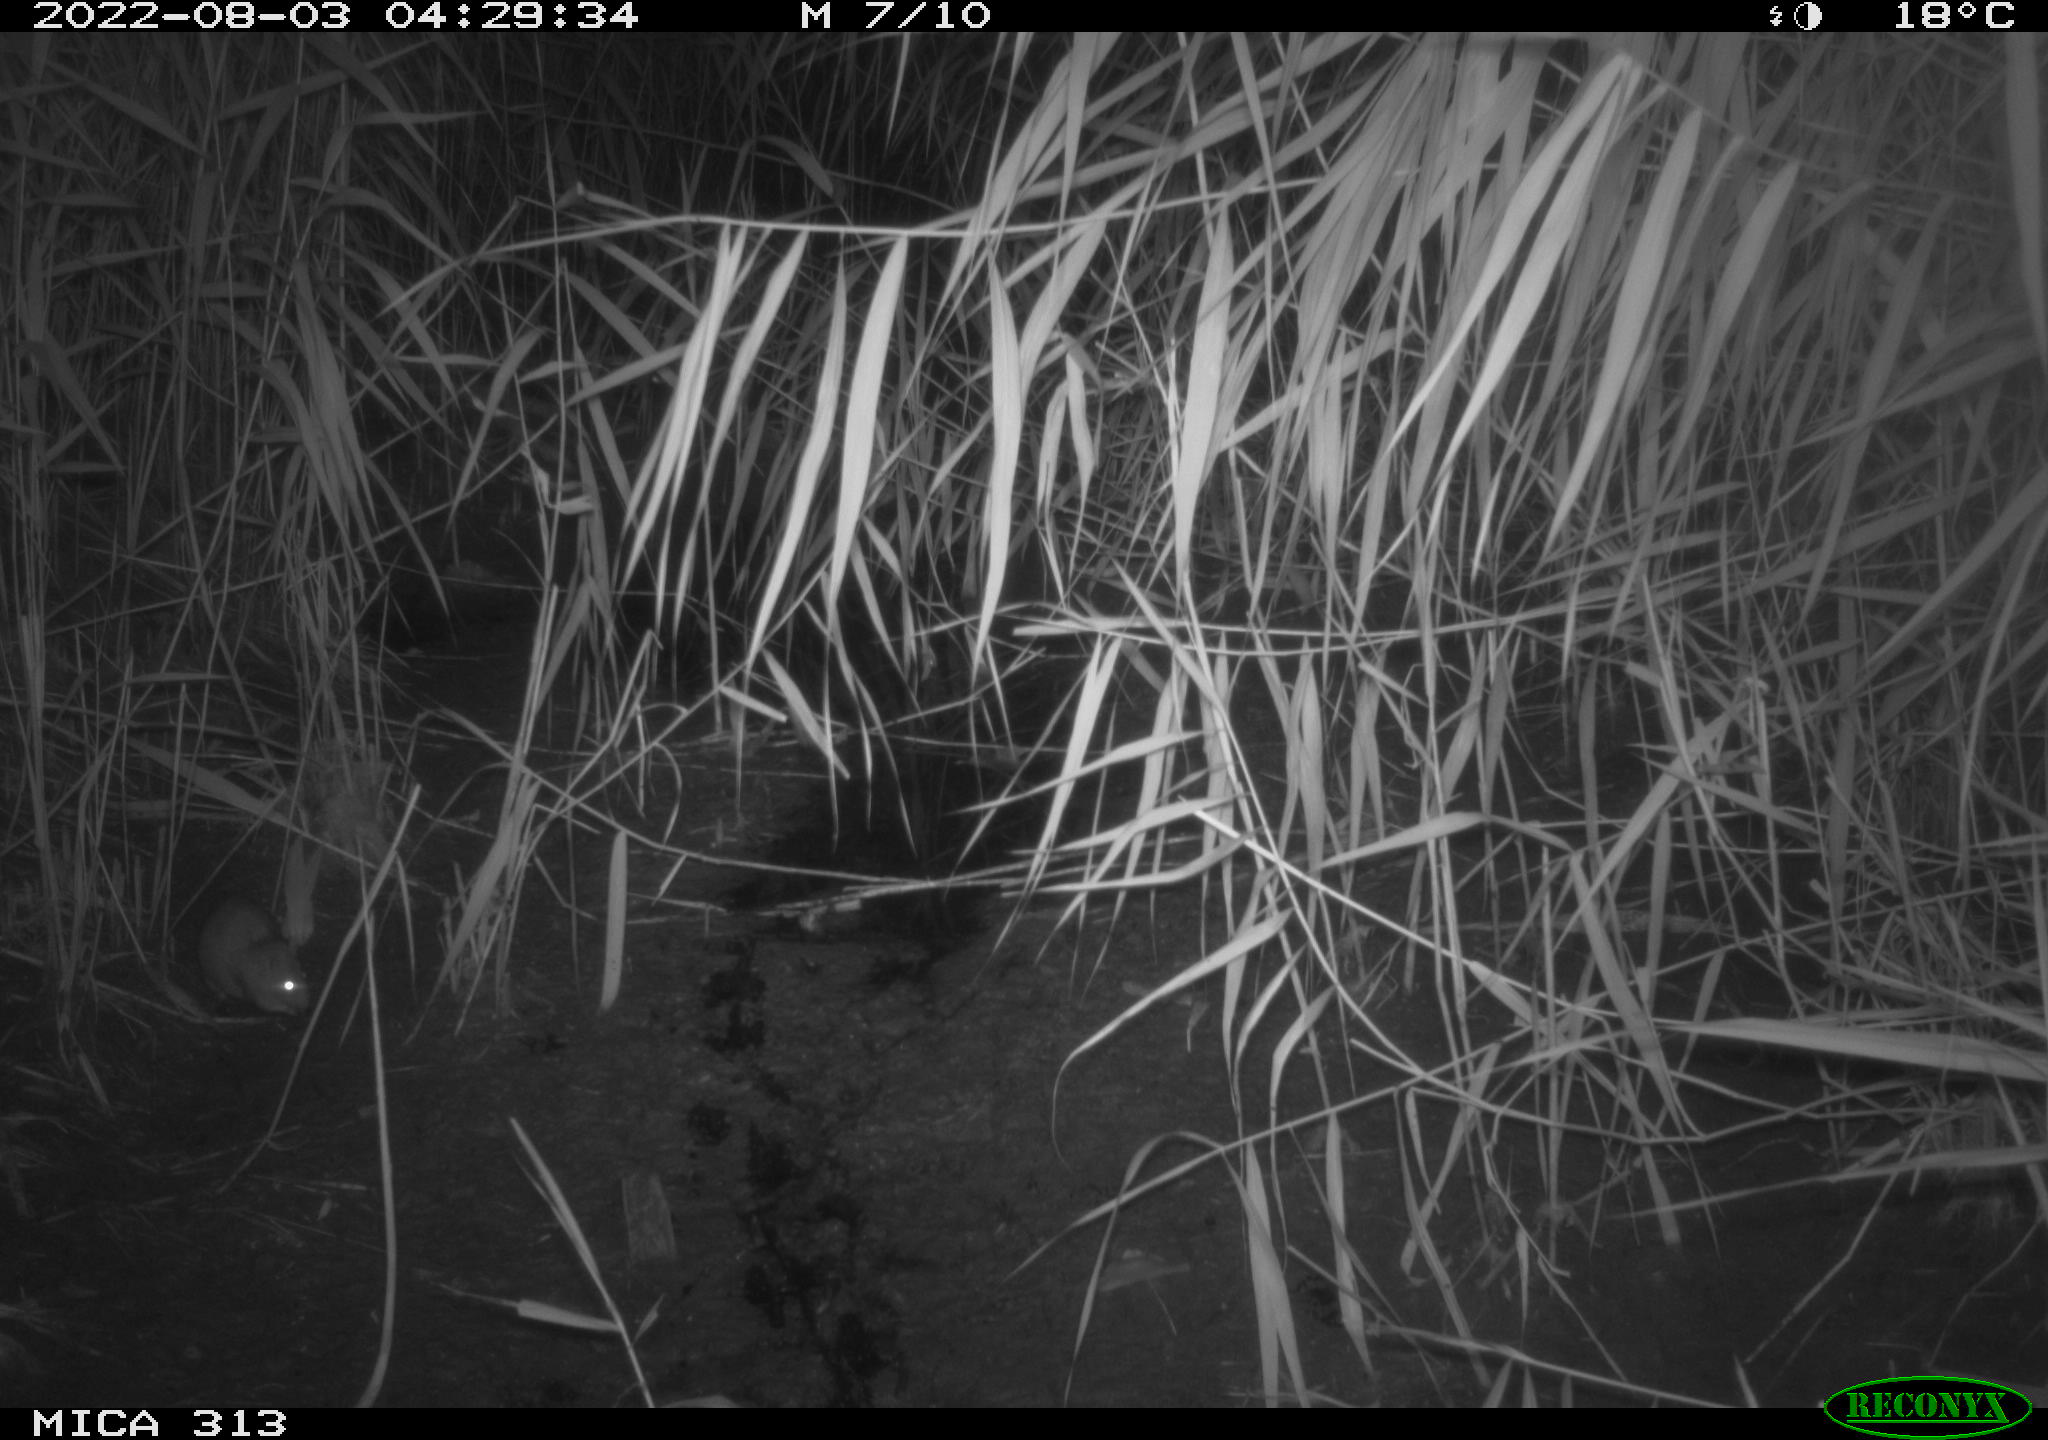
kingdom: Animalia
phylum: Chordata
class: Mammalia
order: Rodentia
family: Muridae
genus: Rattus
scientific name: Rattus norvegicus
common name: Brown rat
